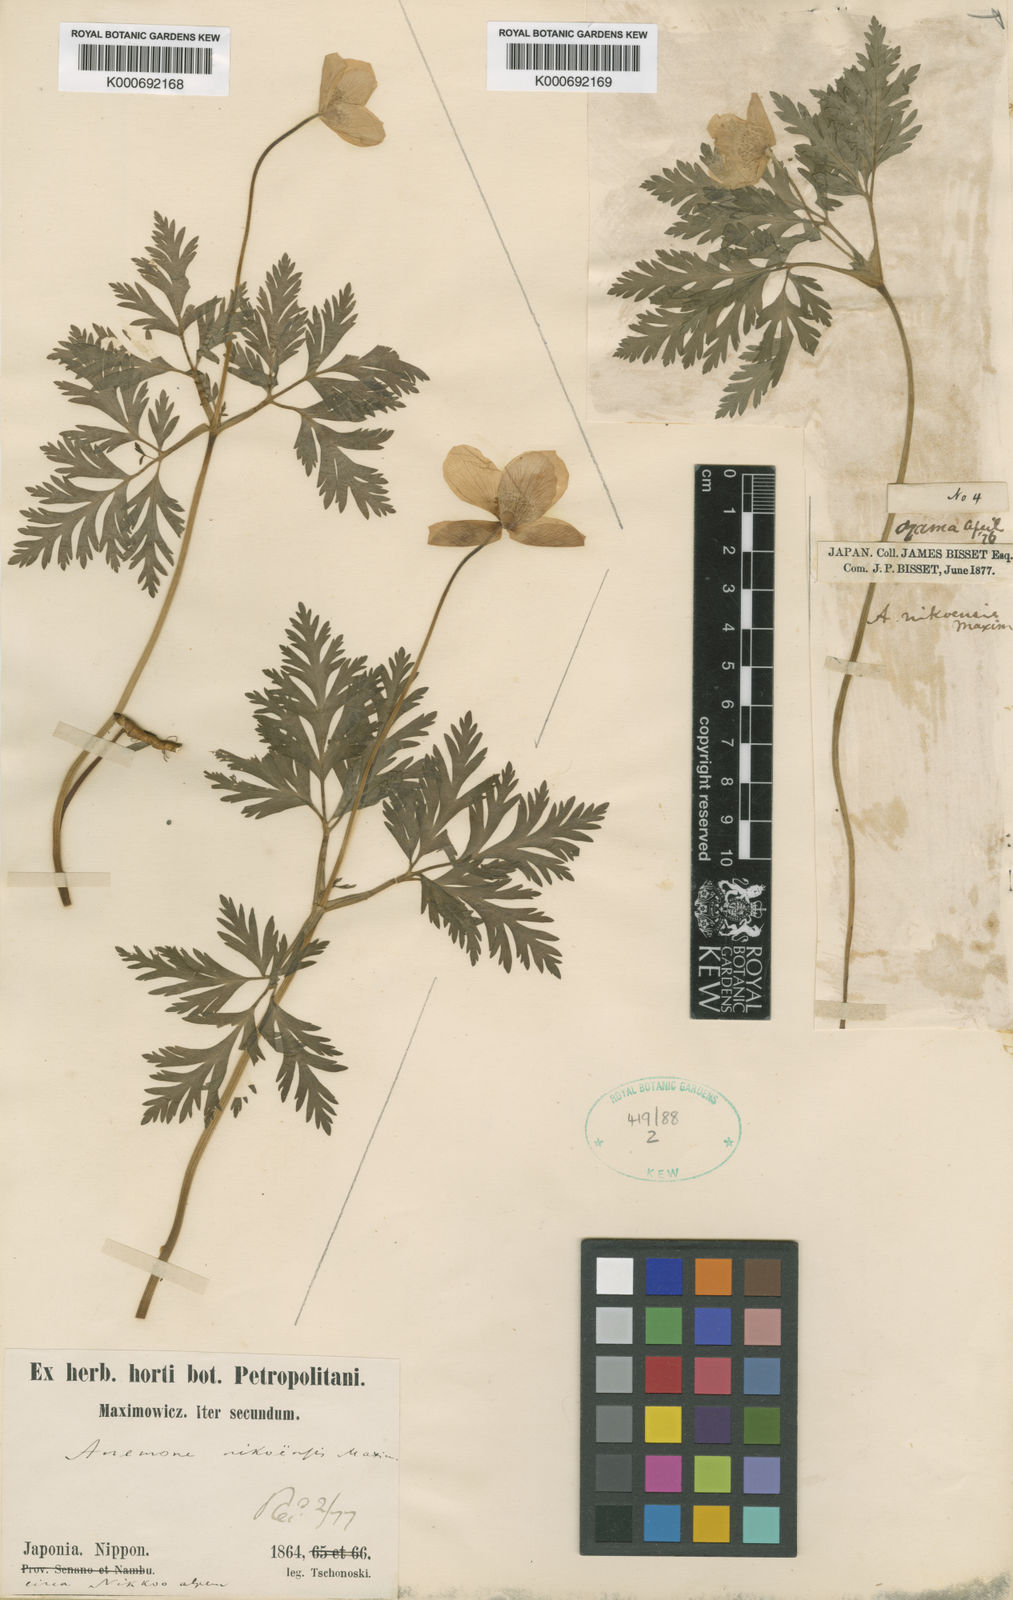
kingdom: Plantae
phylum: Tracheophyta
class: Magnoliopsida
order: Ranunculales
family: Ranunculaceae
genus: Anemone
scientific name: Anemone nikoensis
